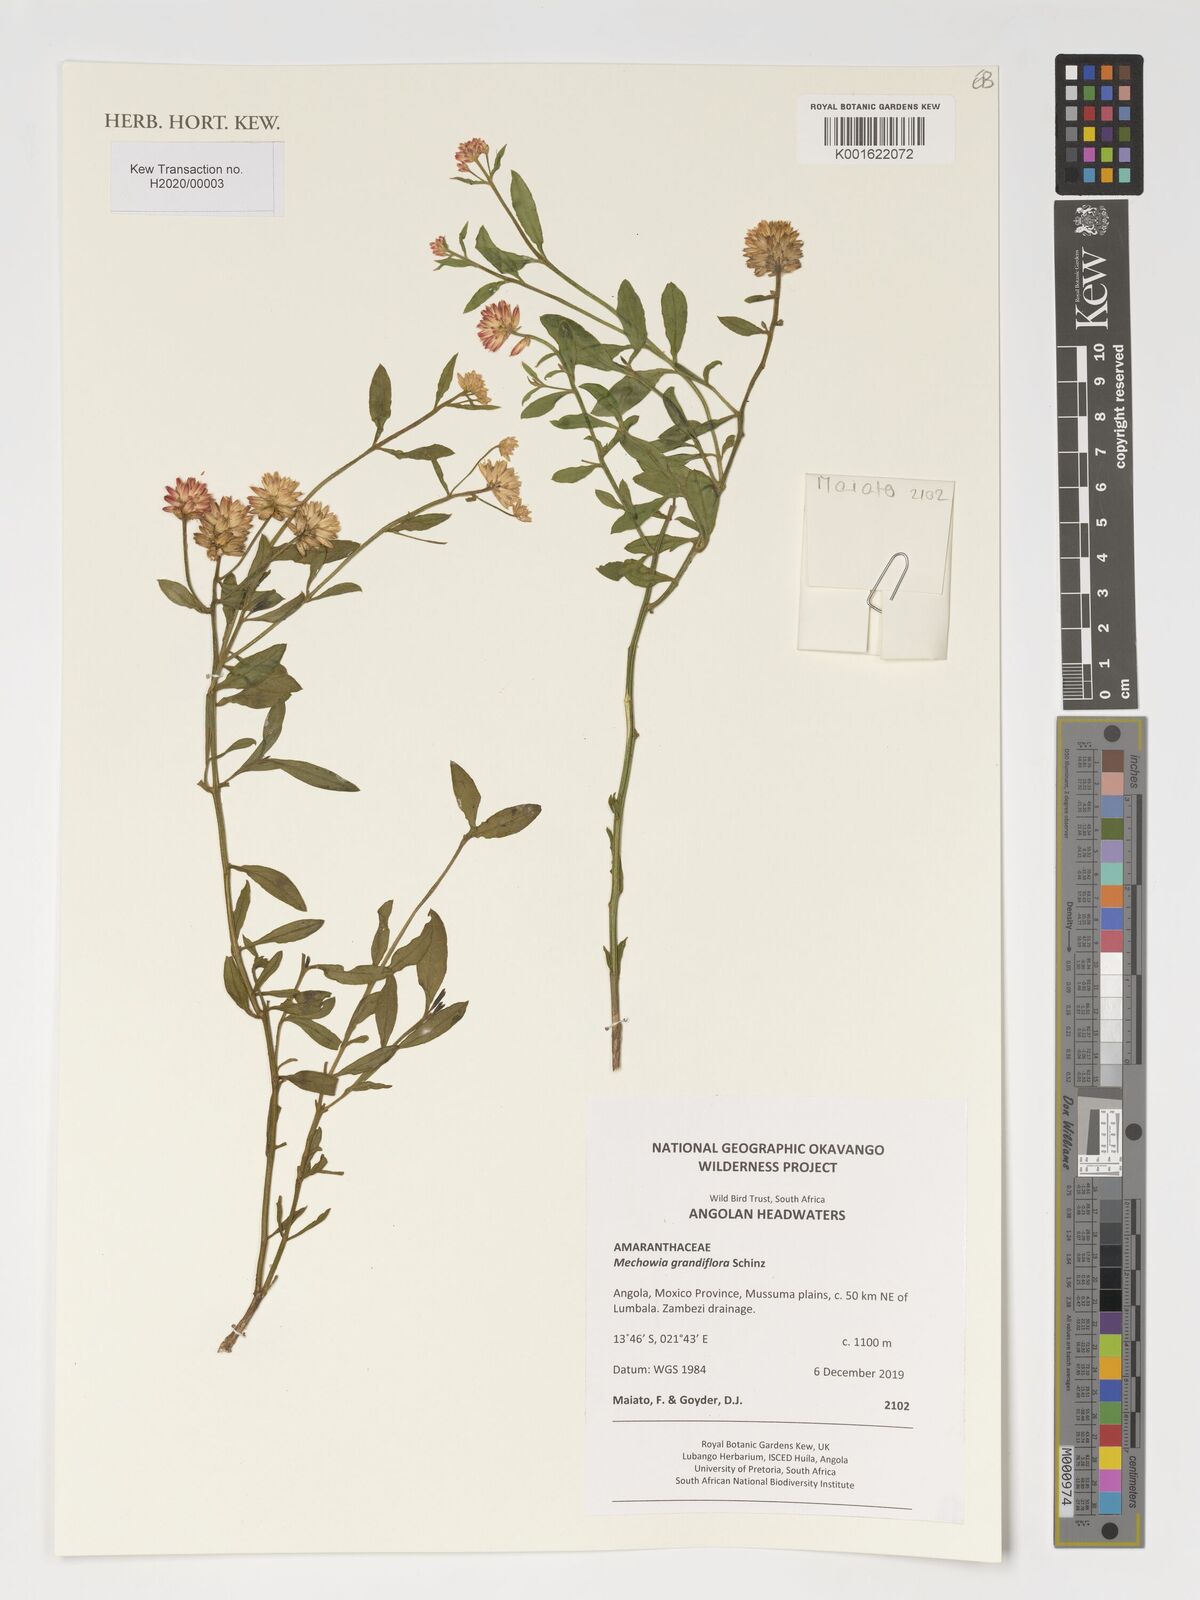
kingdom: Plantae
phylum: Tracheophyta
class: Magnoliopsida
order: Caryophyllales
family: Amaranthaceae
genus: Mechowia
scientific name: Mechowia grandiflora
